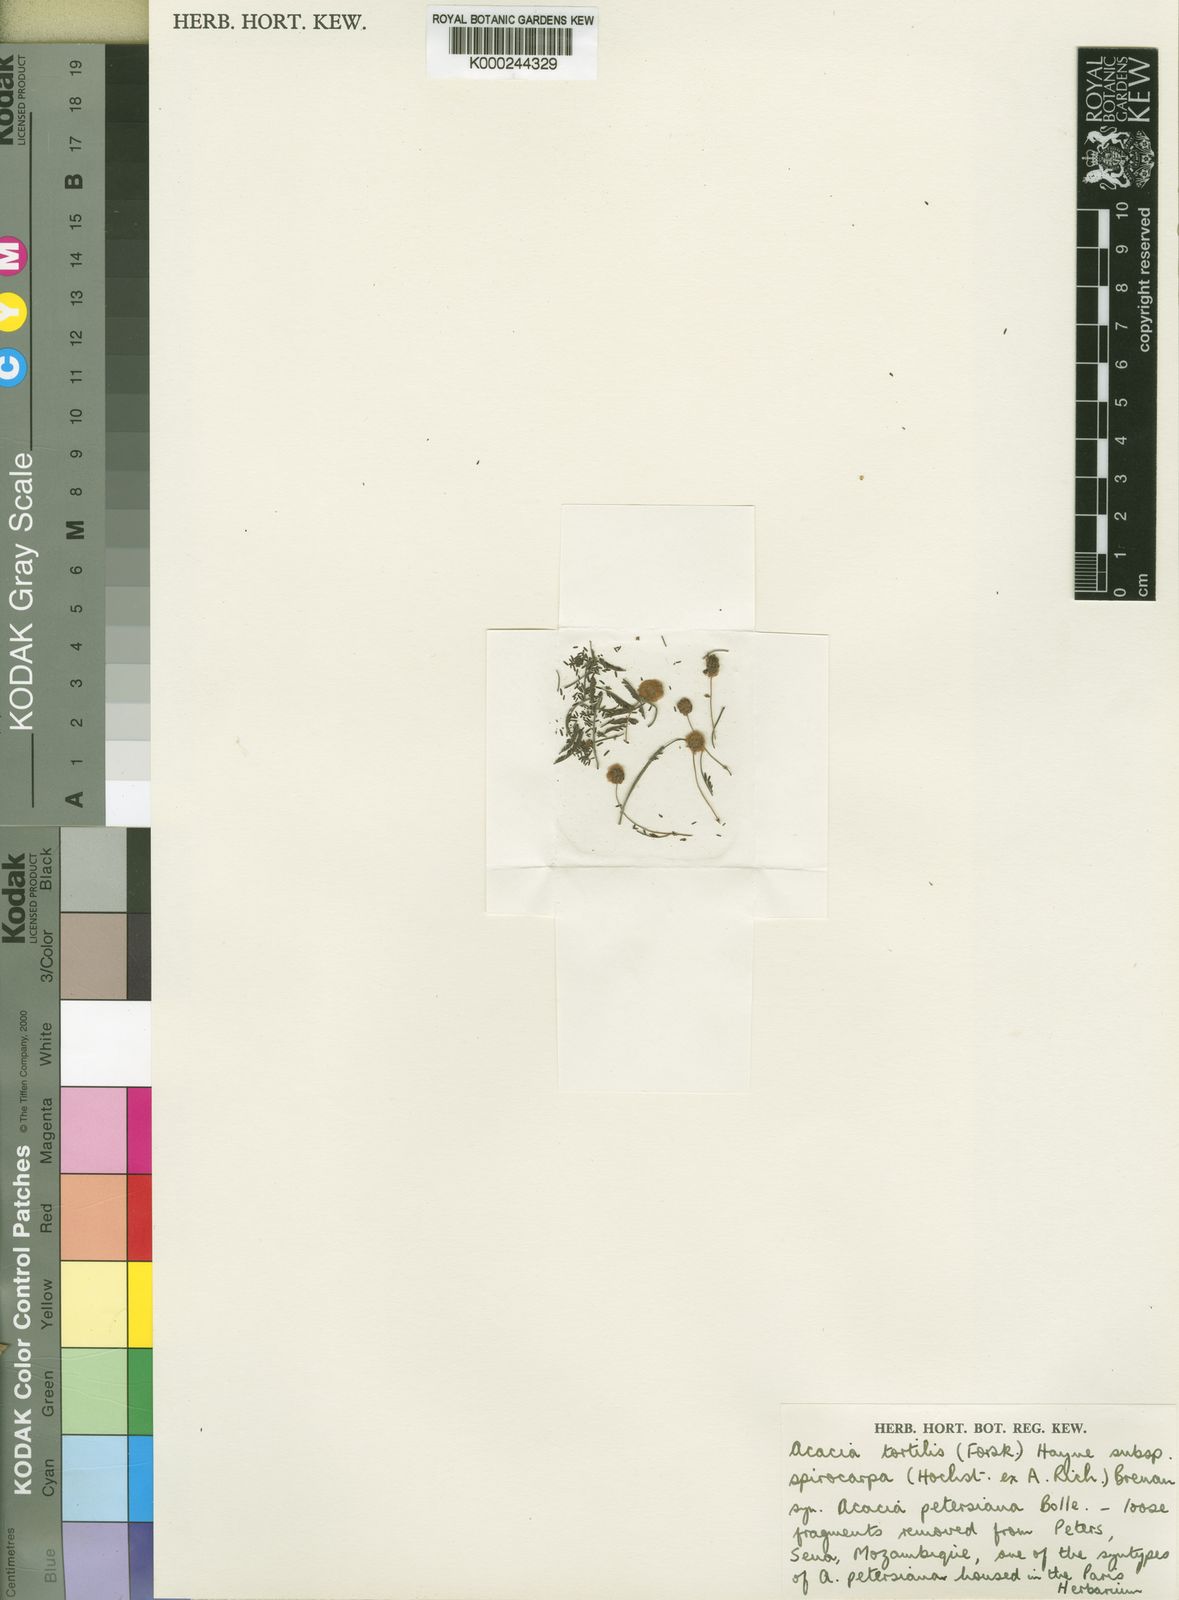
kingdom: Plantae
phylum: Tracheophyta
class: Magnoliopsida
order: Fabales
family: Fabaceae
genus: Vachellia
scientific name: Vachellia tortilis
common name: Umbrella thorn acacia
